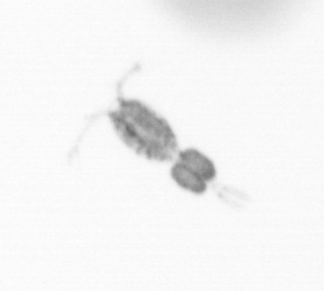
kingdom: Animalia
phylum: Arthropoda
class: Copepoda
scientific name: Copepoda
